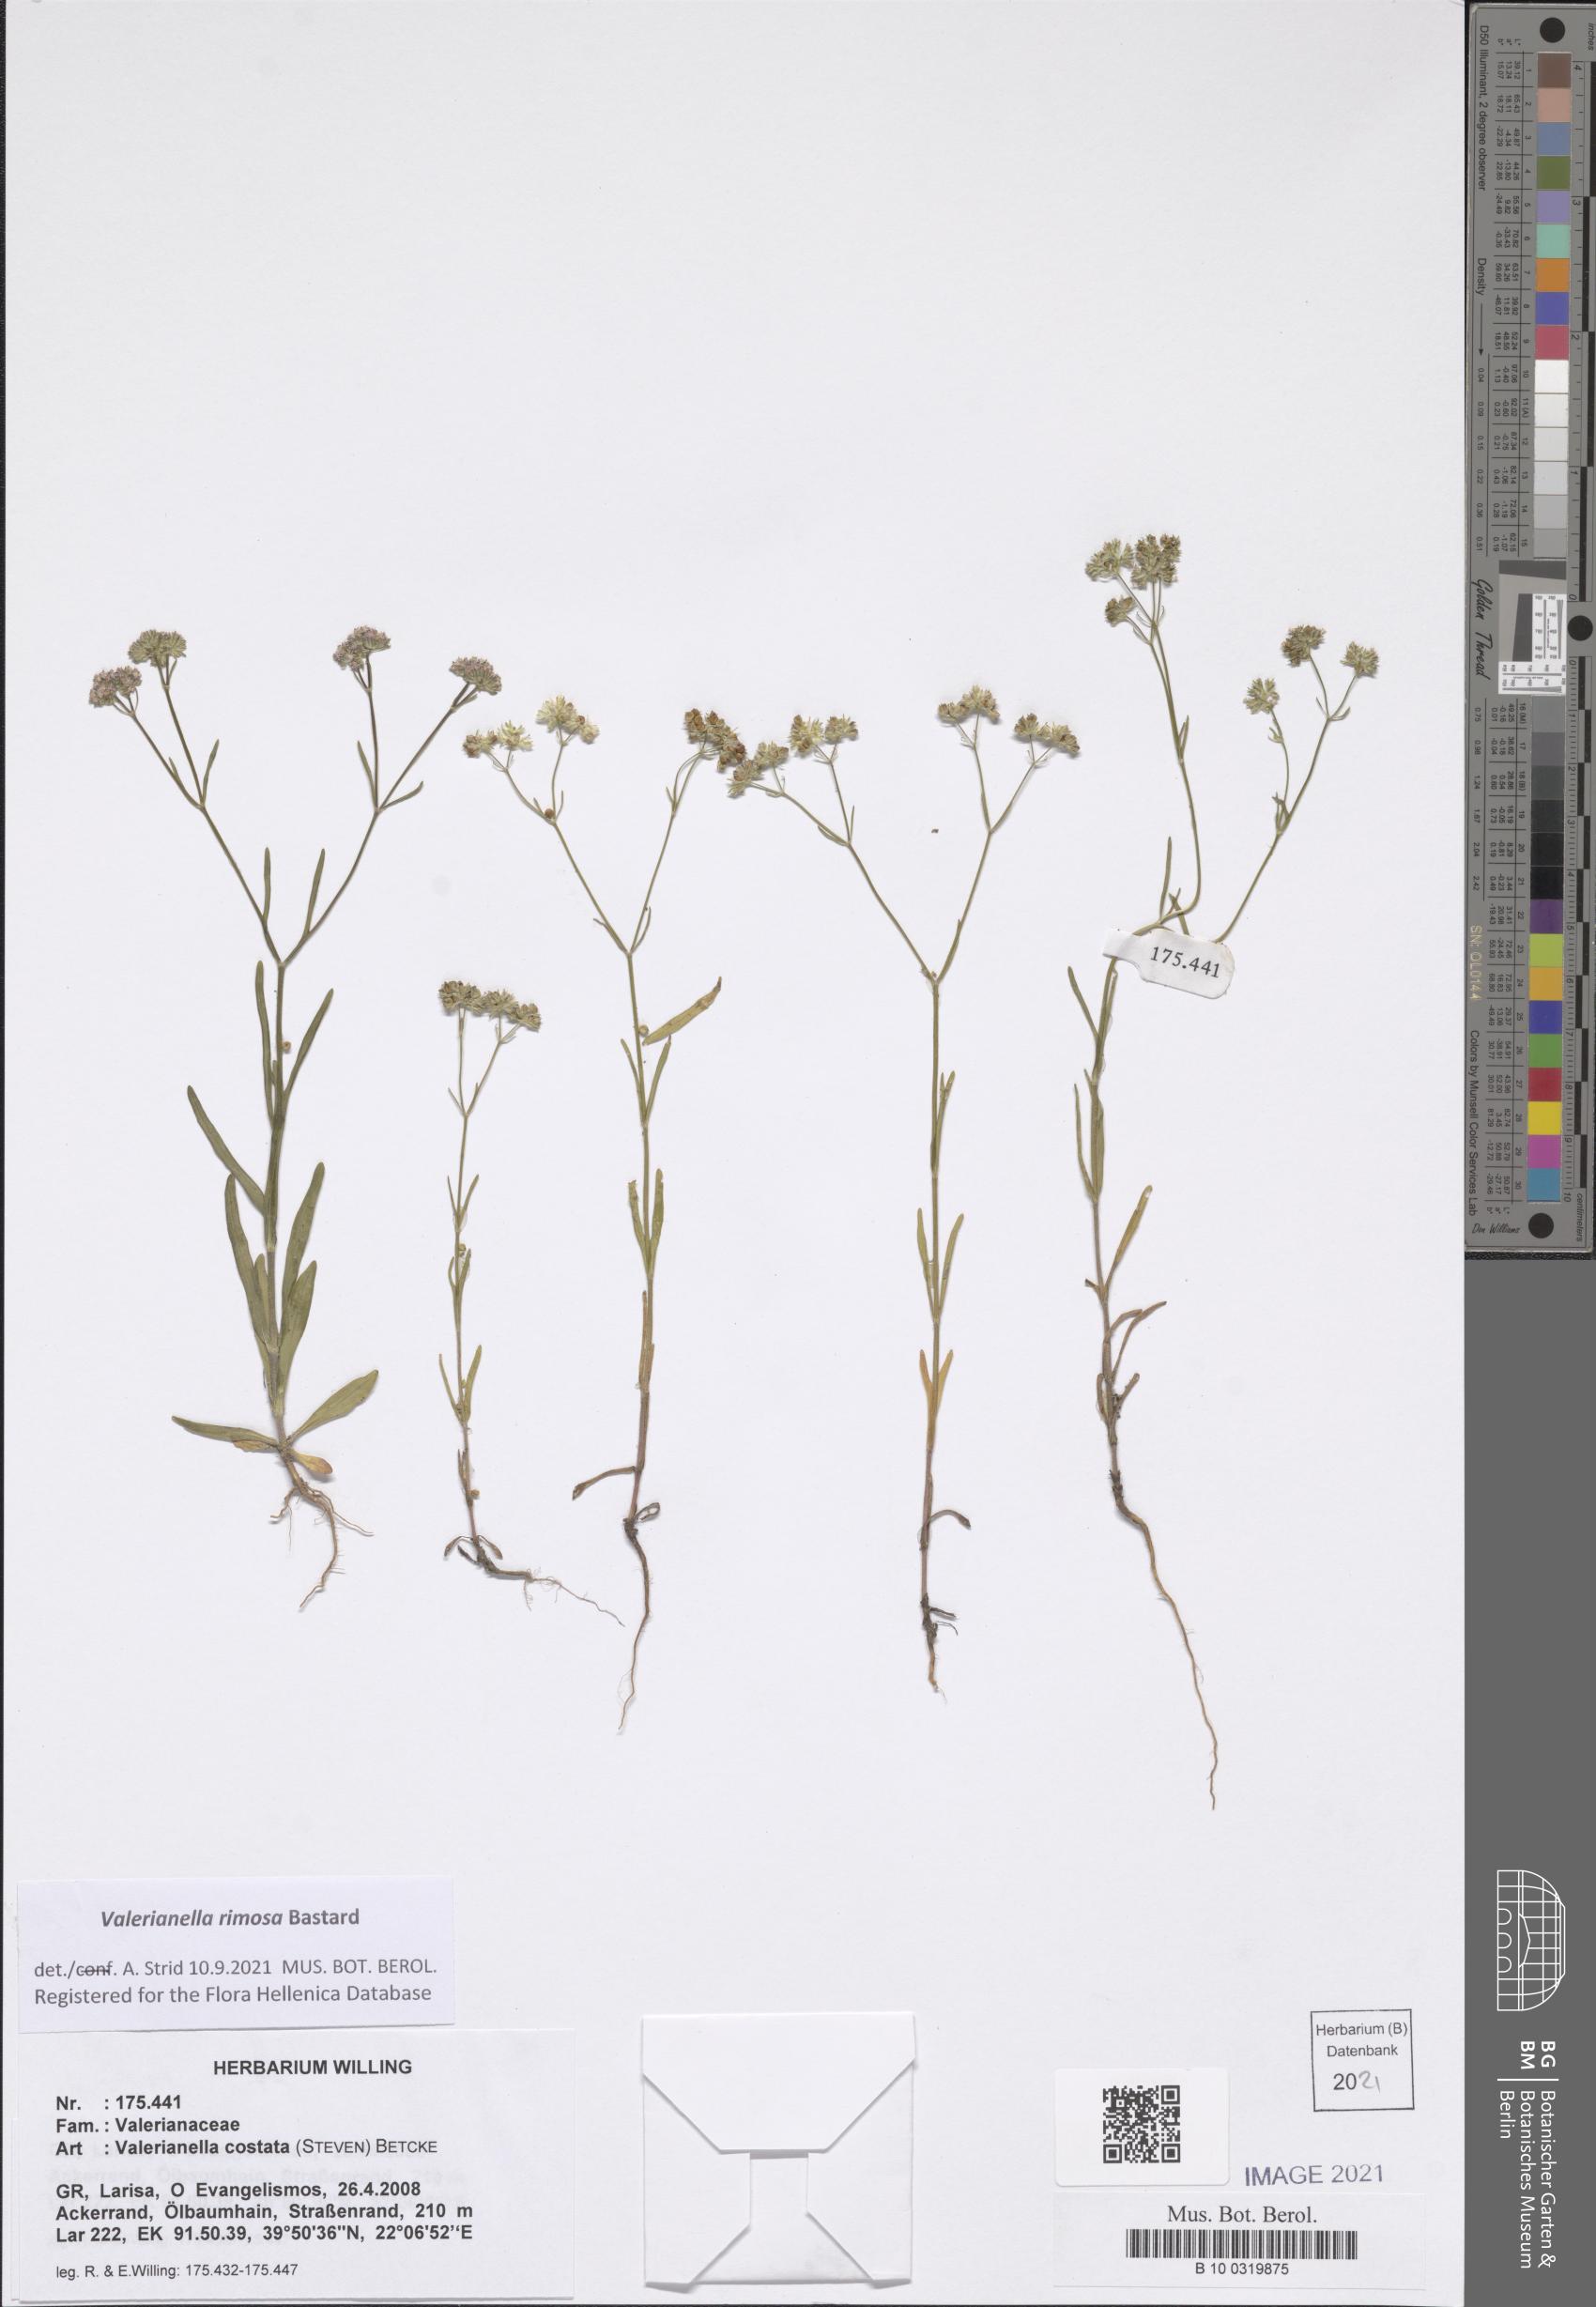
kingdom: Plantae
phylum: Tracheophyta
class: Magnoliopsida
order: Dipsacales
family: Caprifoliaceae
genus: Valerianella
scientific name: Valerianella rimosa
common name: Broad-fruited cornsalad
